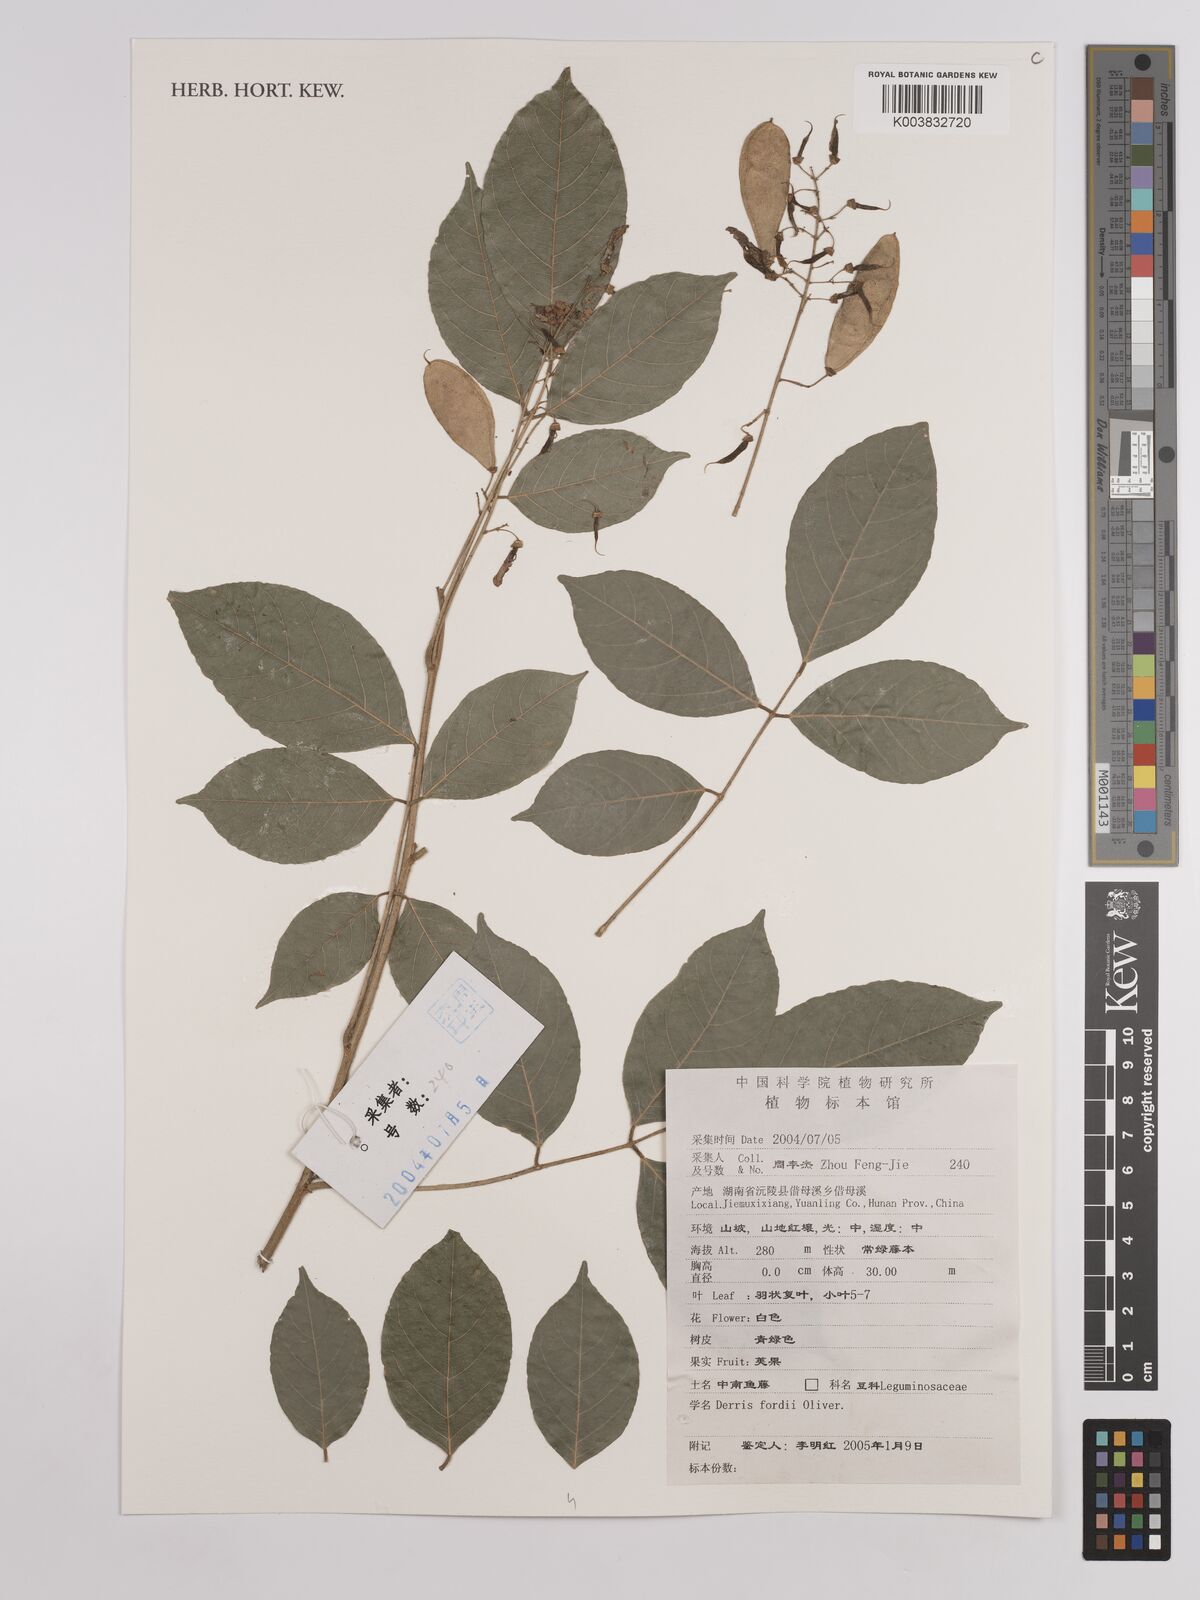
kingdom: Plantae
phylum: Tracheophyta
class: Magnoliopsida
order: Fabales
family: Fabaceae
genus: Derris
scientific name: Derris fordii
